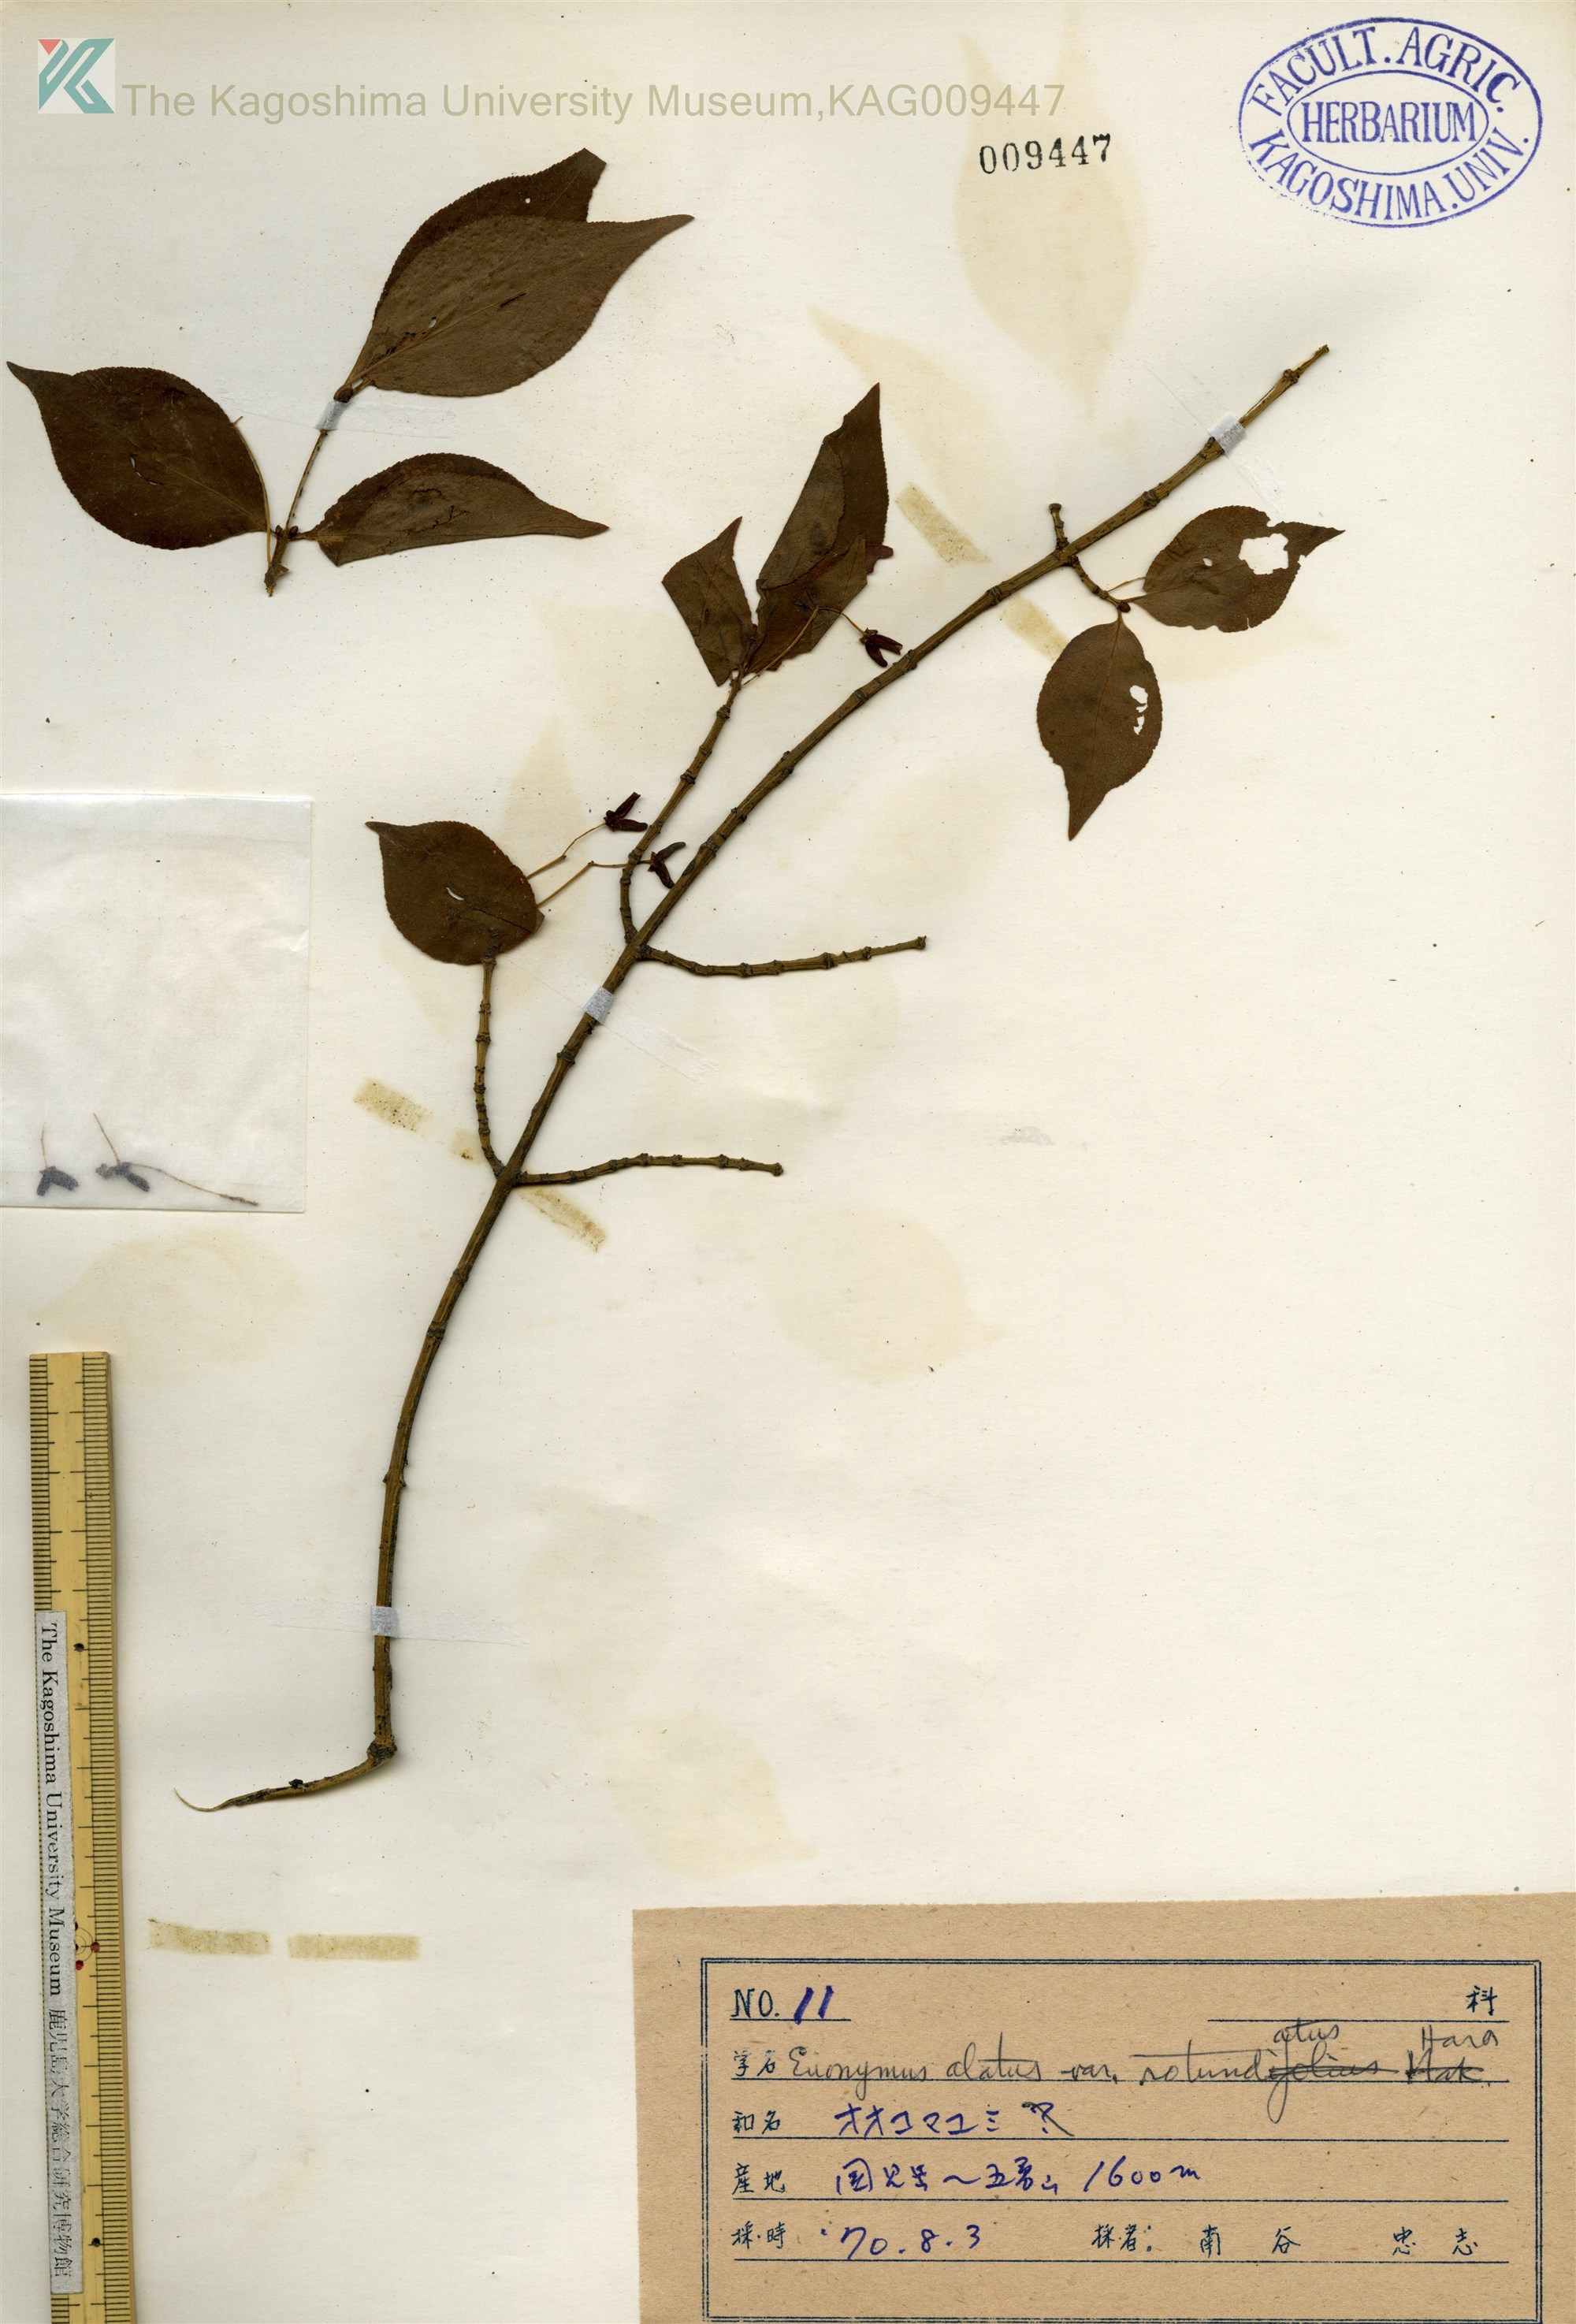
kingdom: Plantae
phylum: Tracheophyta
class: Magnoliopsida
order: Celastrales
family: Celastraceae
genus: Euonymus
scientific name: Euonymus alatus
